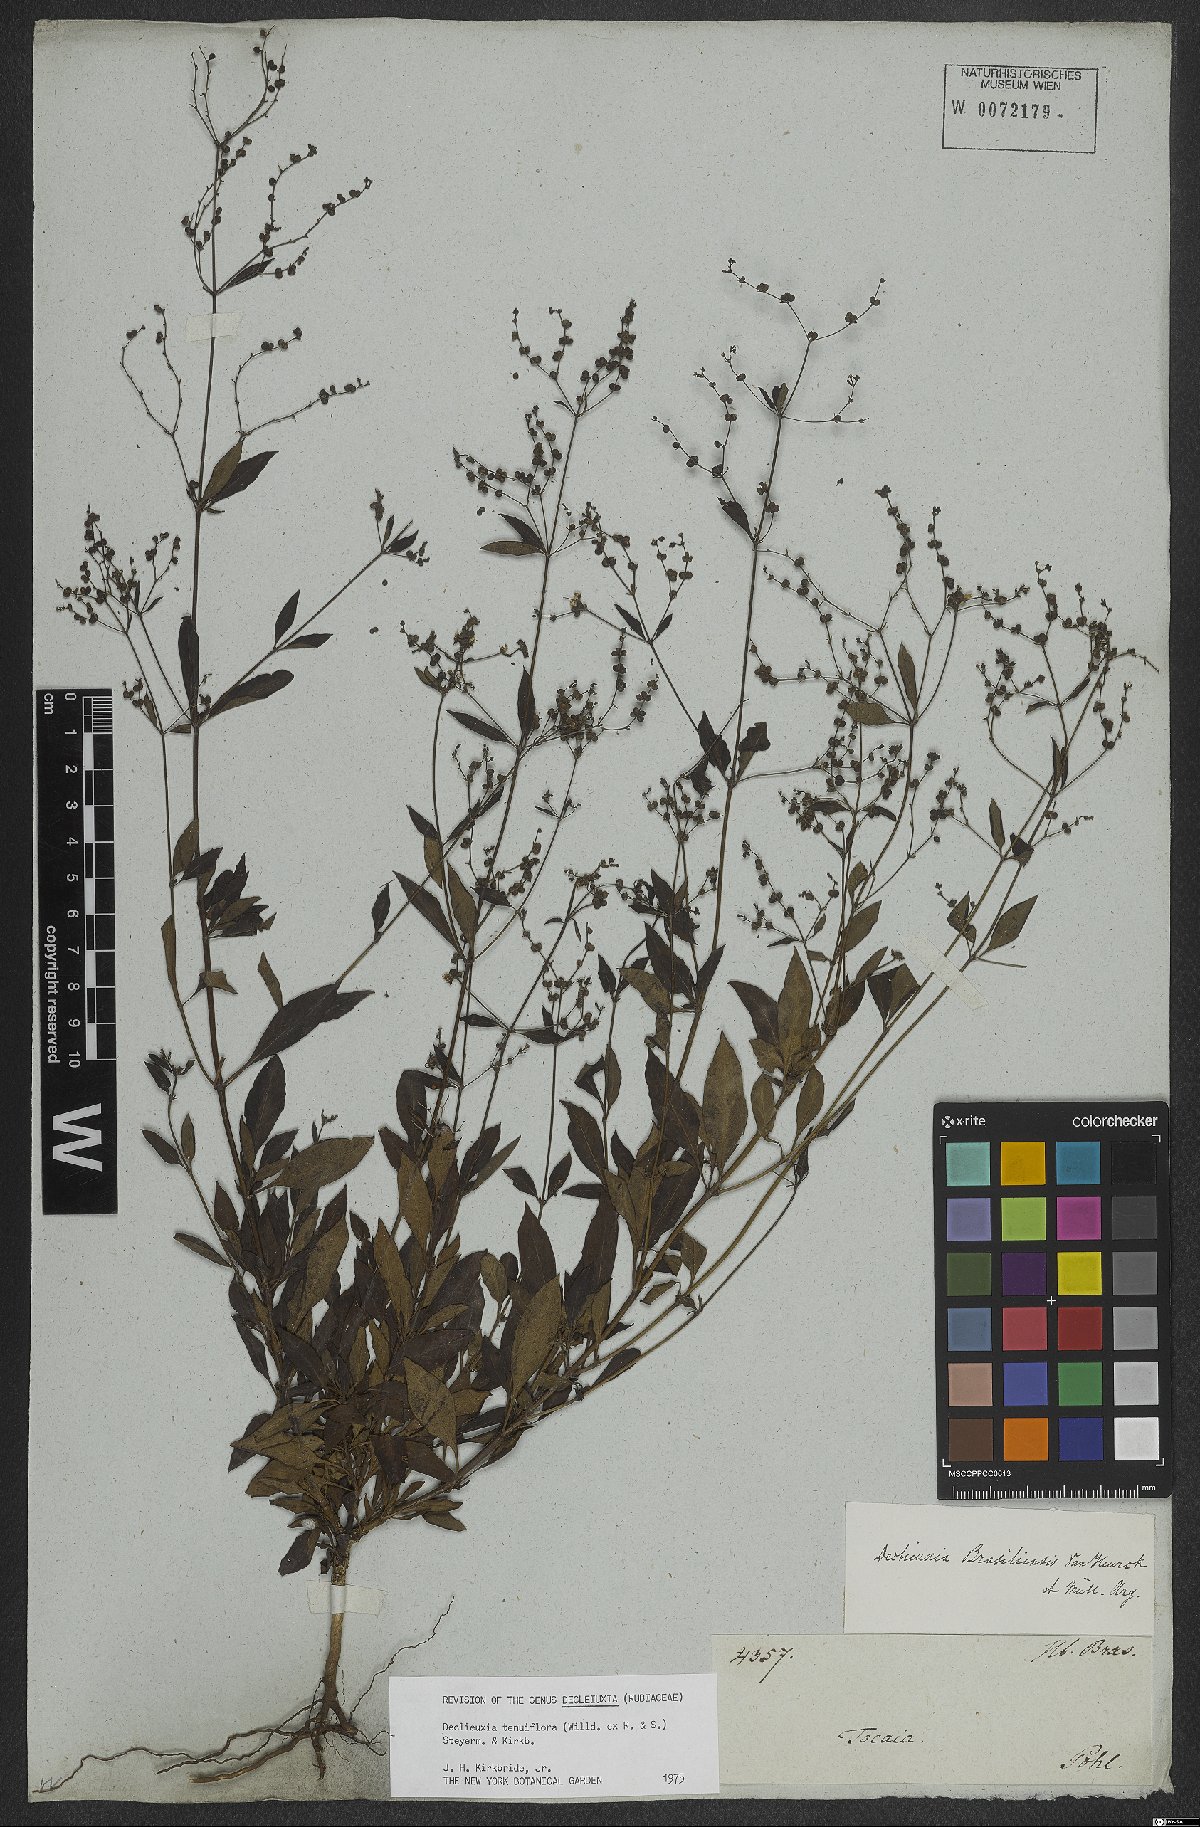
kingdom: Plantae
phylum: Tracheophyta
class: Magnoliopsida
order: Gentianales
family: Rubiaceae
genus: Declieuxia
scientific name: Declieuxia tenuiflora
